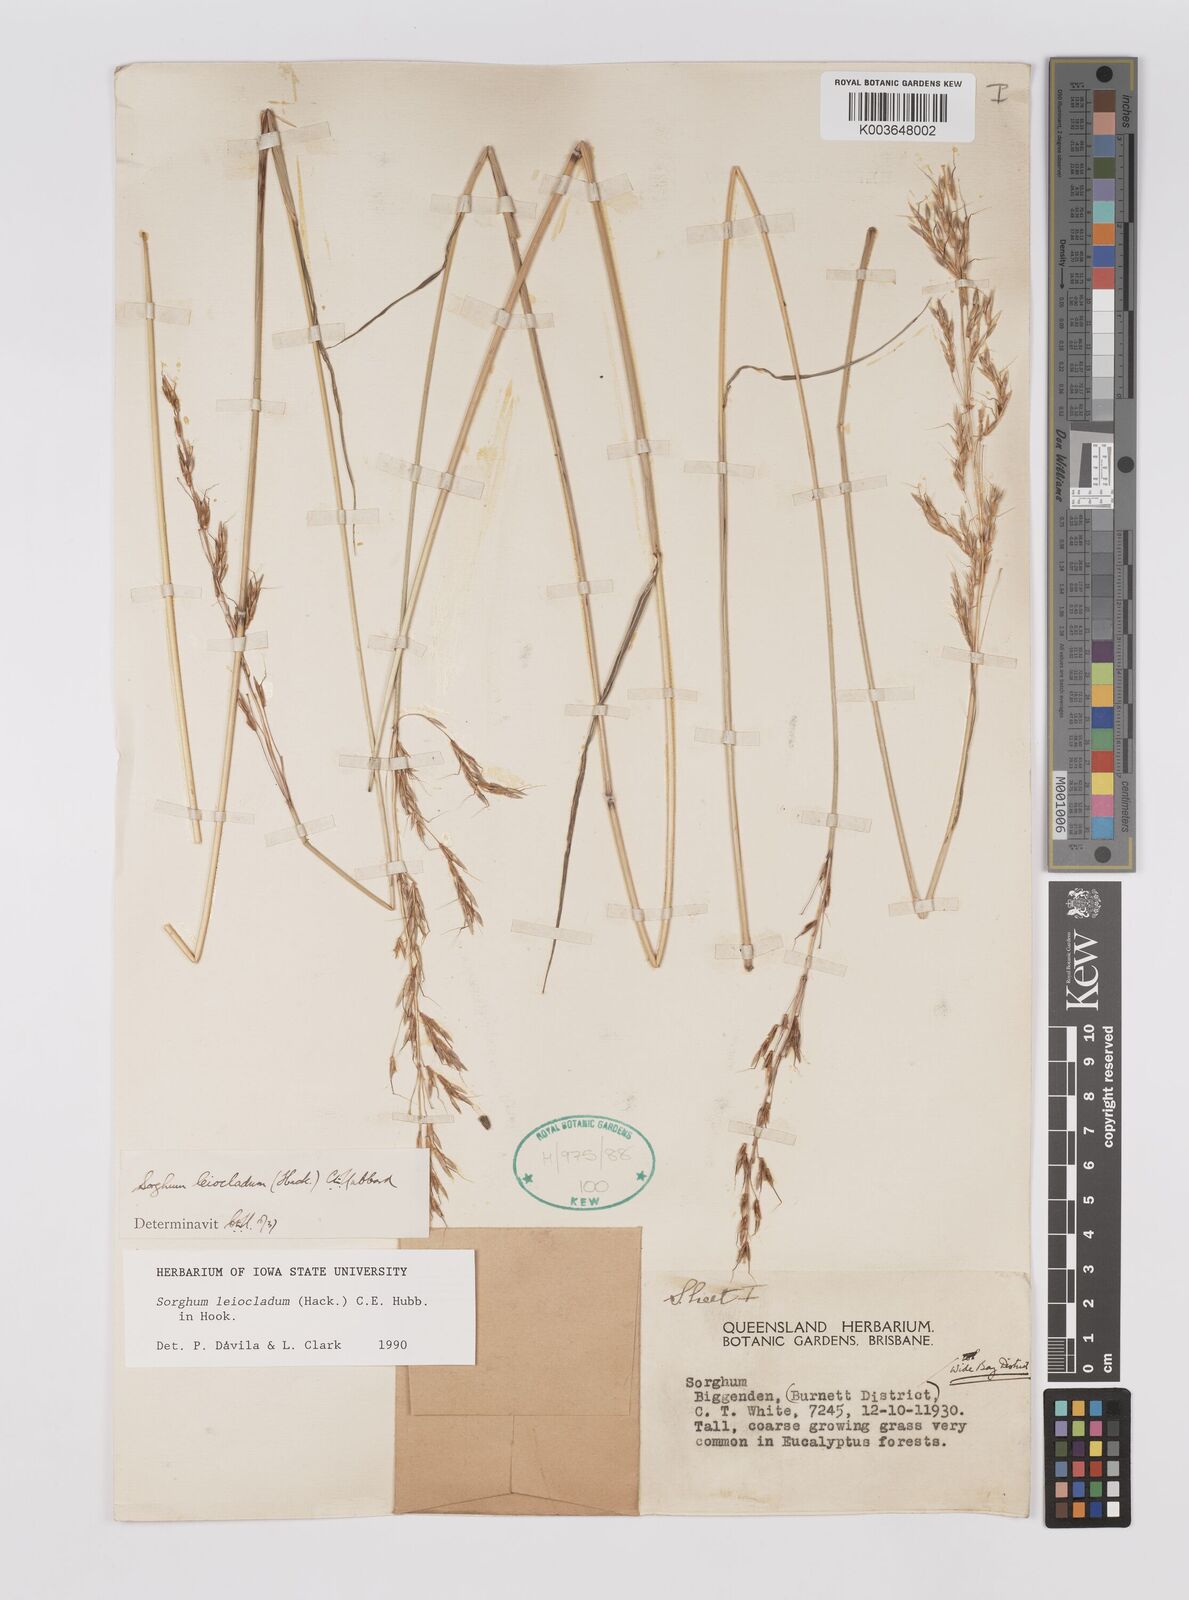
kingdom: Plantae
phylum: Tracheophyta
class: Liliopsida
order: Poales
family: Poaceae
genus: Sarga
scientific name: Sarga leioclada
